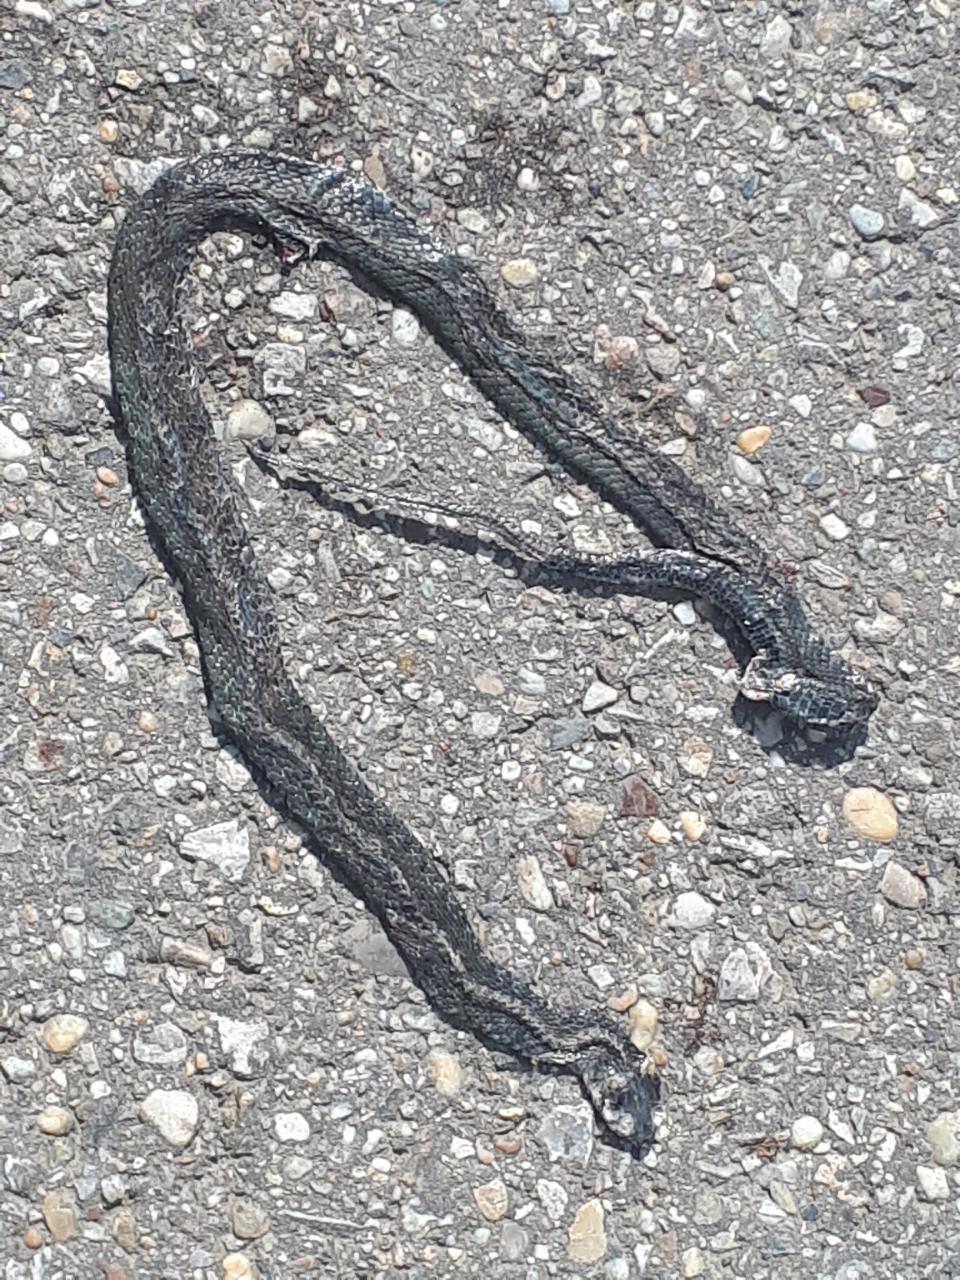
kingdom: Animalia
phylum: Chordata
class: Squamata
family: Colubridae
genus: Natrix
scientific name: Natrix natrix
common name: Grass snake
